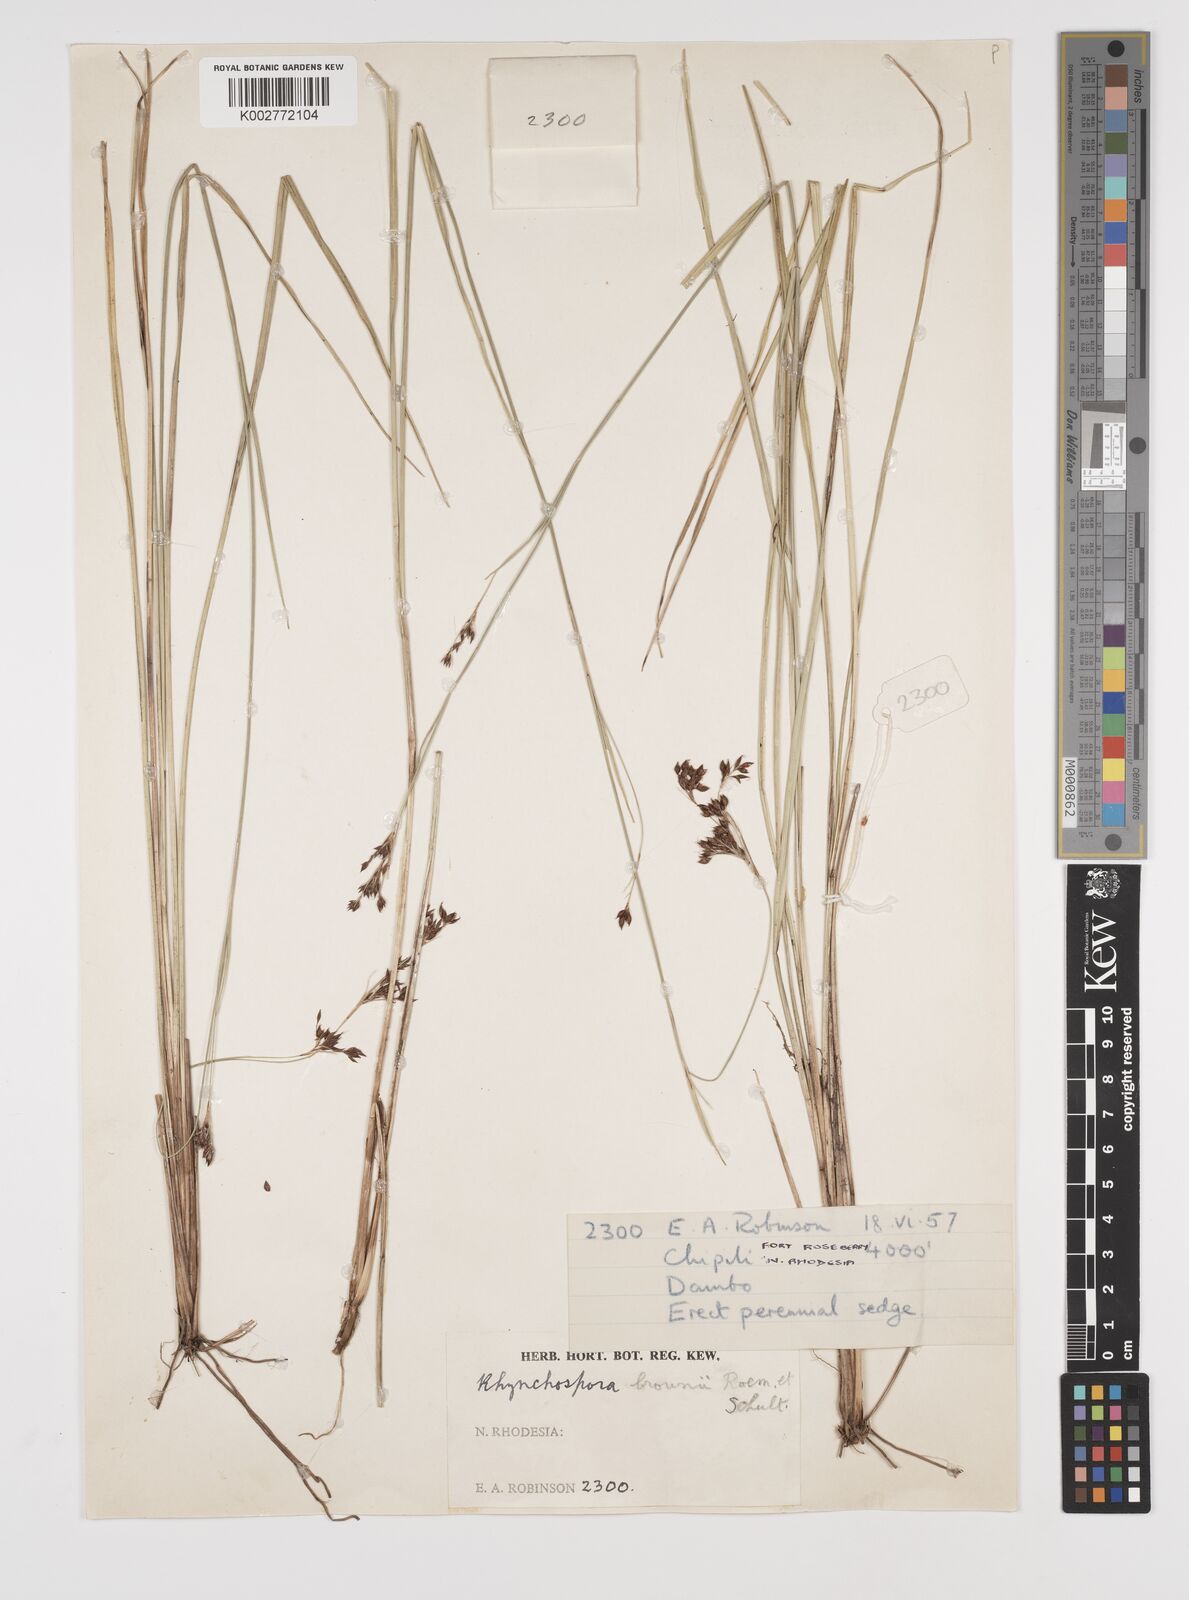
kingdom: Plantae
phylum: Tracheophyta
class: Liliopsida
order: Poales
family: Cyperaceae
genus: Rhynchospora
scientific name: Rhynchospora rugosa
